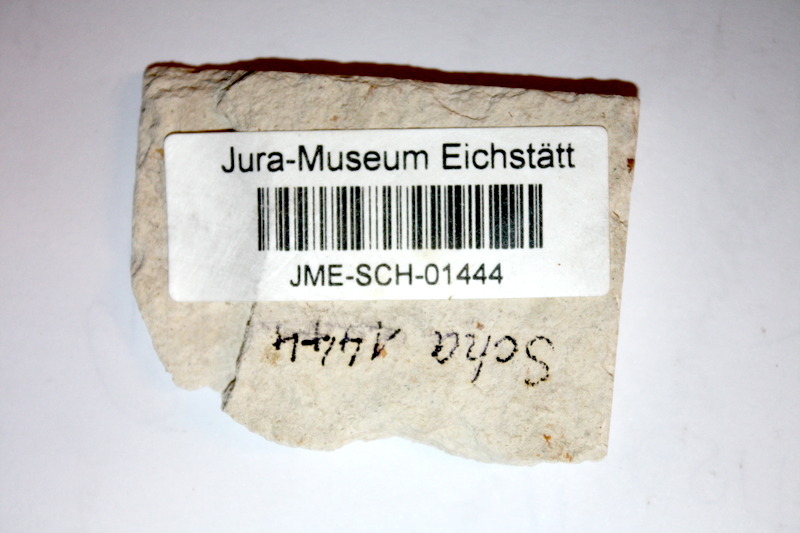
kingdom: Animalia
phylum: Chordata
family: Ascalaboidae
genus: Tharsis
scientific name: Tharsis dubius
